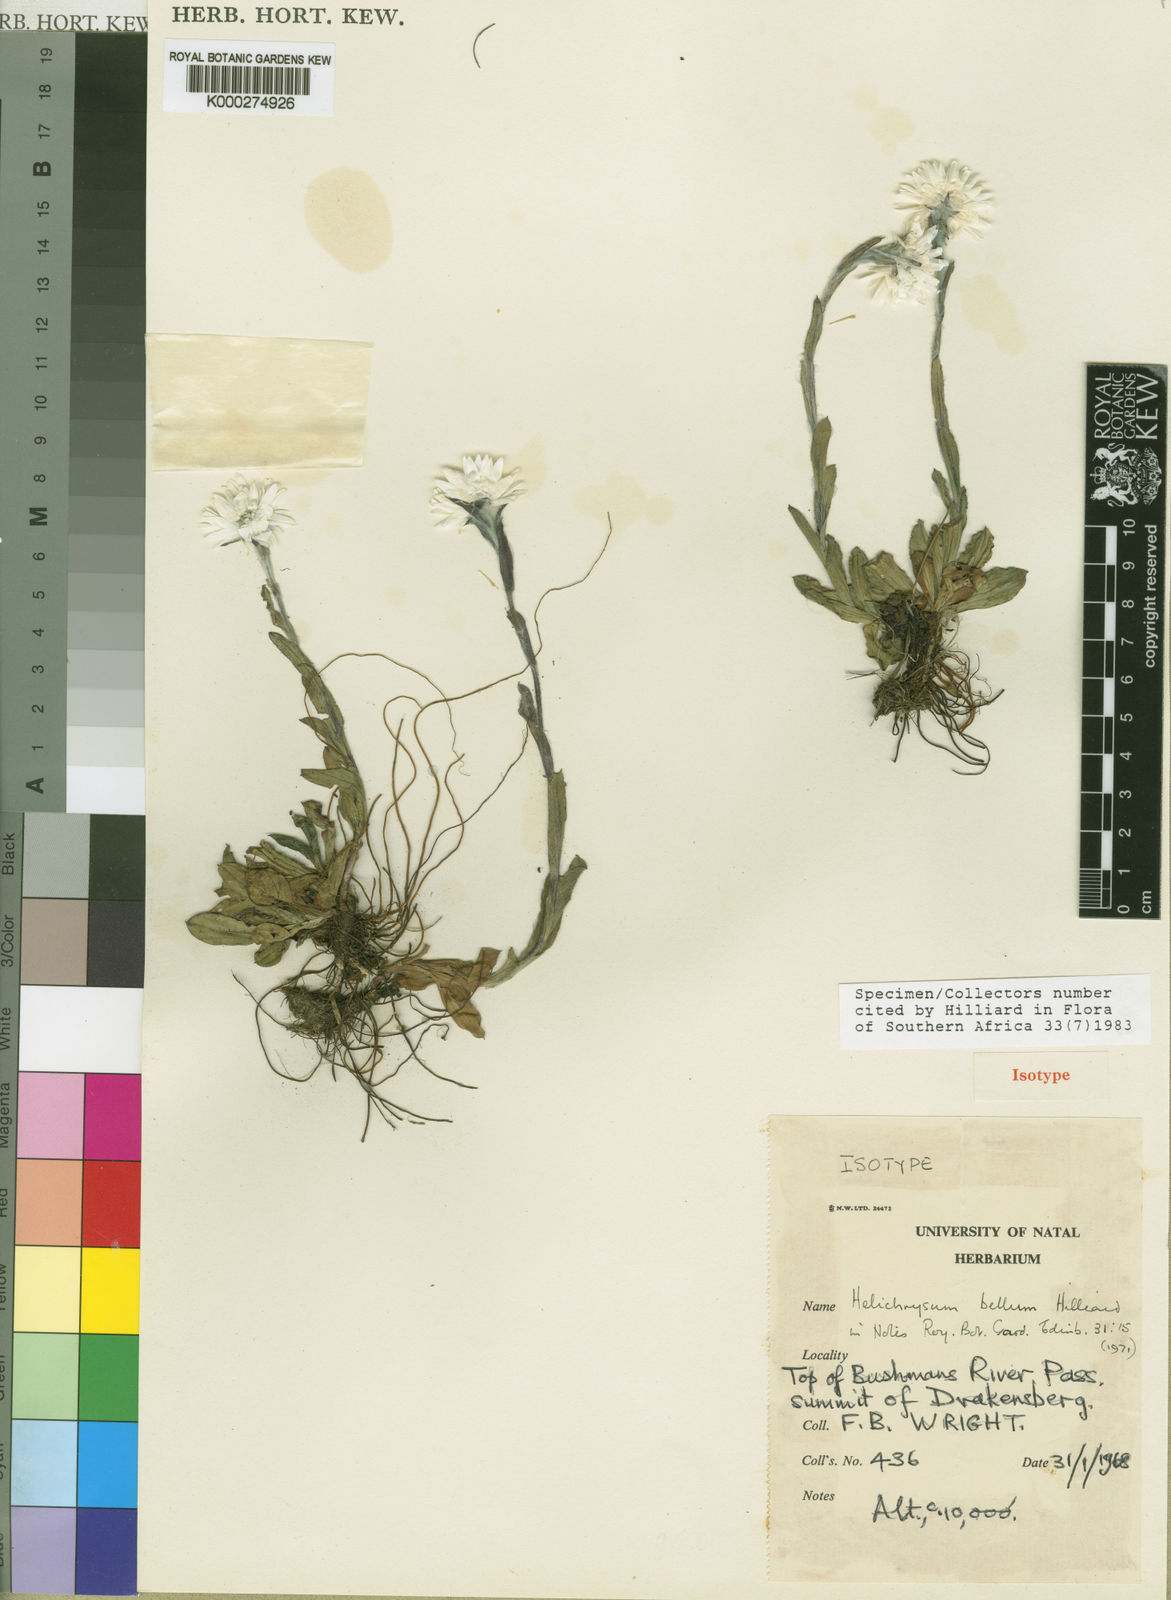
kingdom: Plantae
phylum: Tracheophyta
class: Magnoliopsida
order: Asterales
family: Asteraceae
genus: Helichrysum
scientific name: Helichrysum bellum
